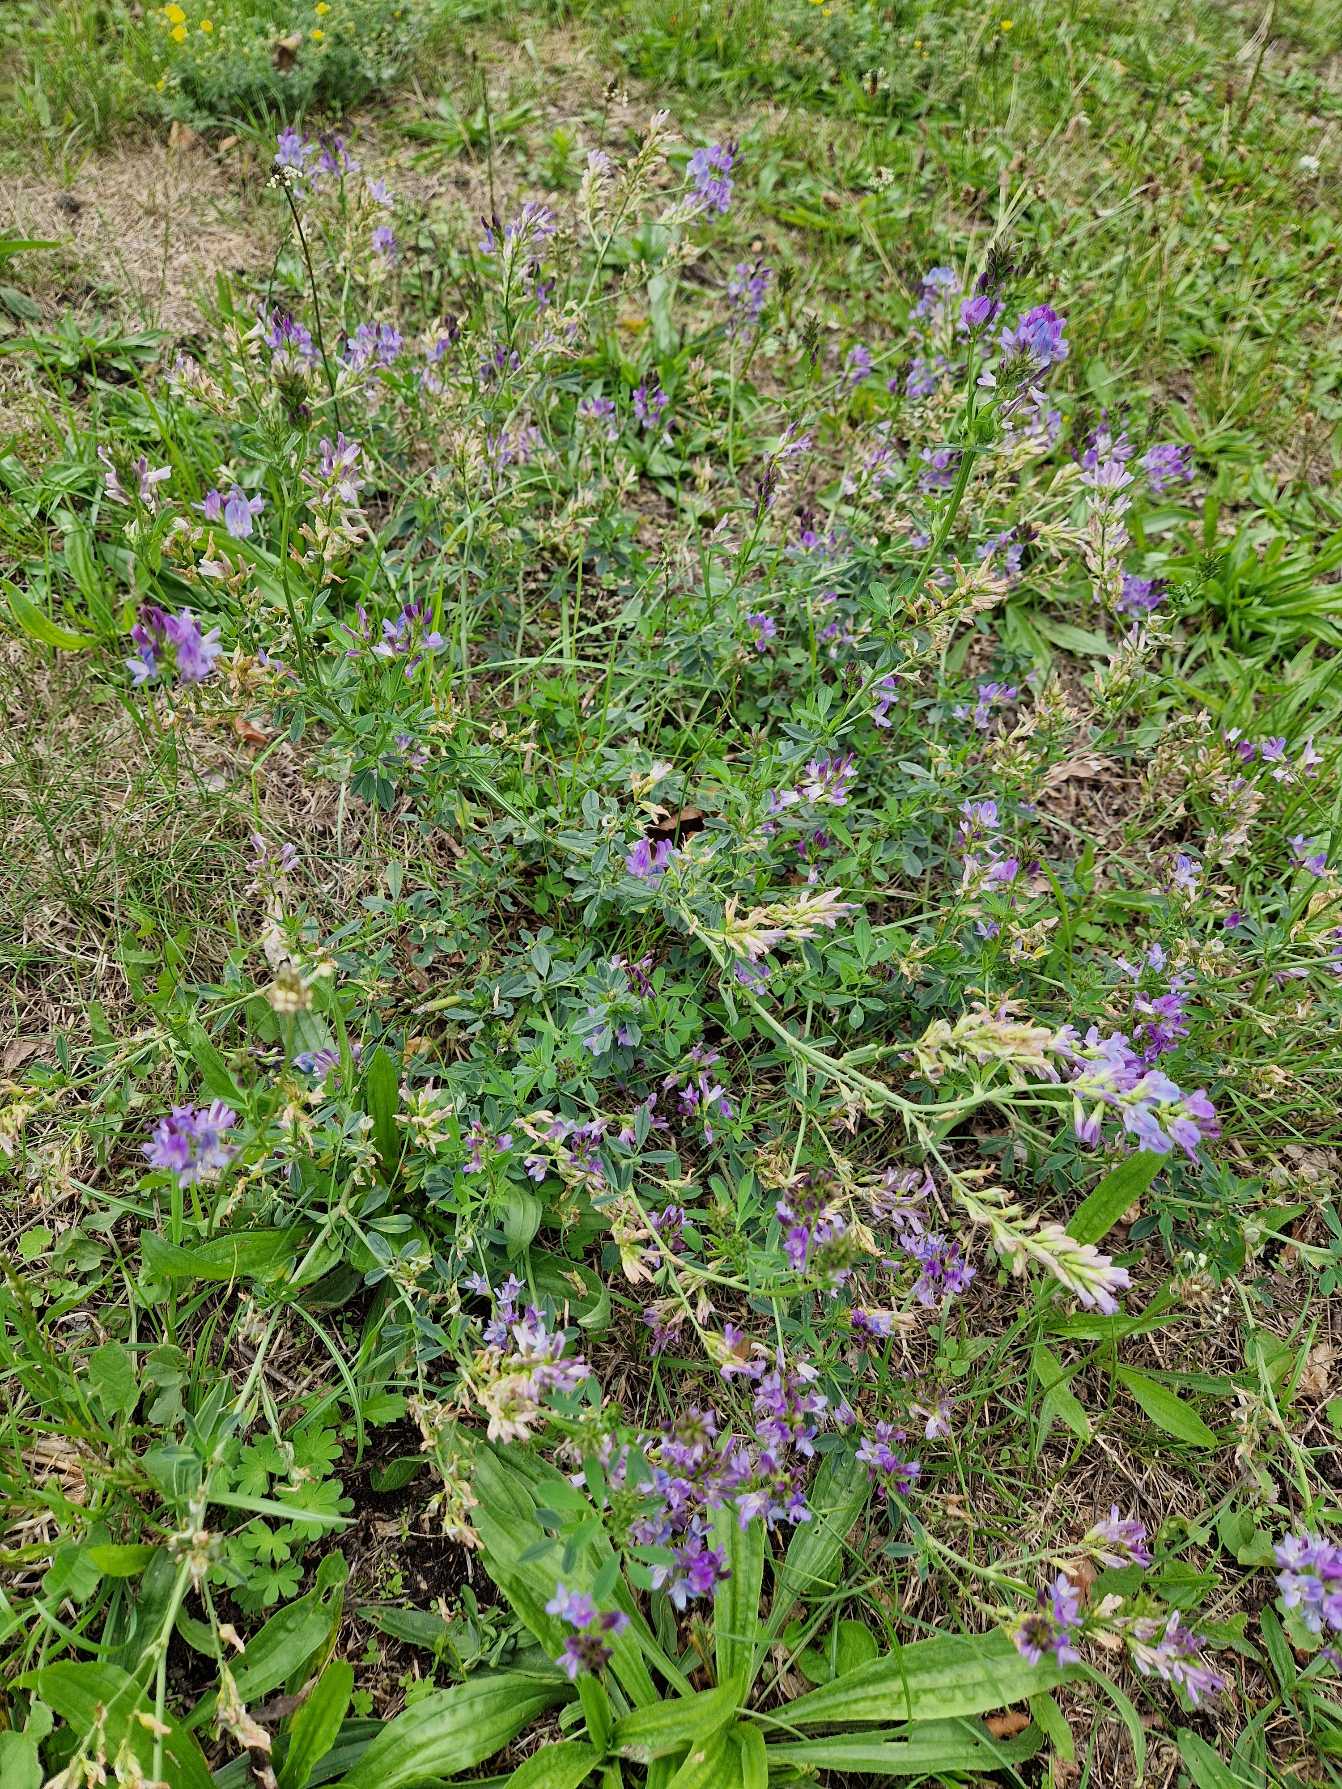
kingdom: Plantae
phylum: Tracheophyta
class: Magnoliopsida
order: Fabales
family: Fabaceae
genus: Medicago
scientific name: Medicago sativa
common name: Lucerne
